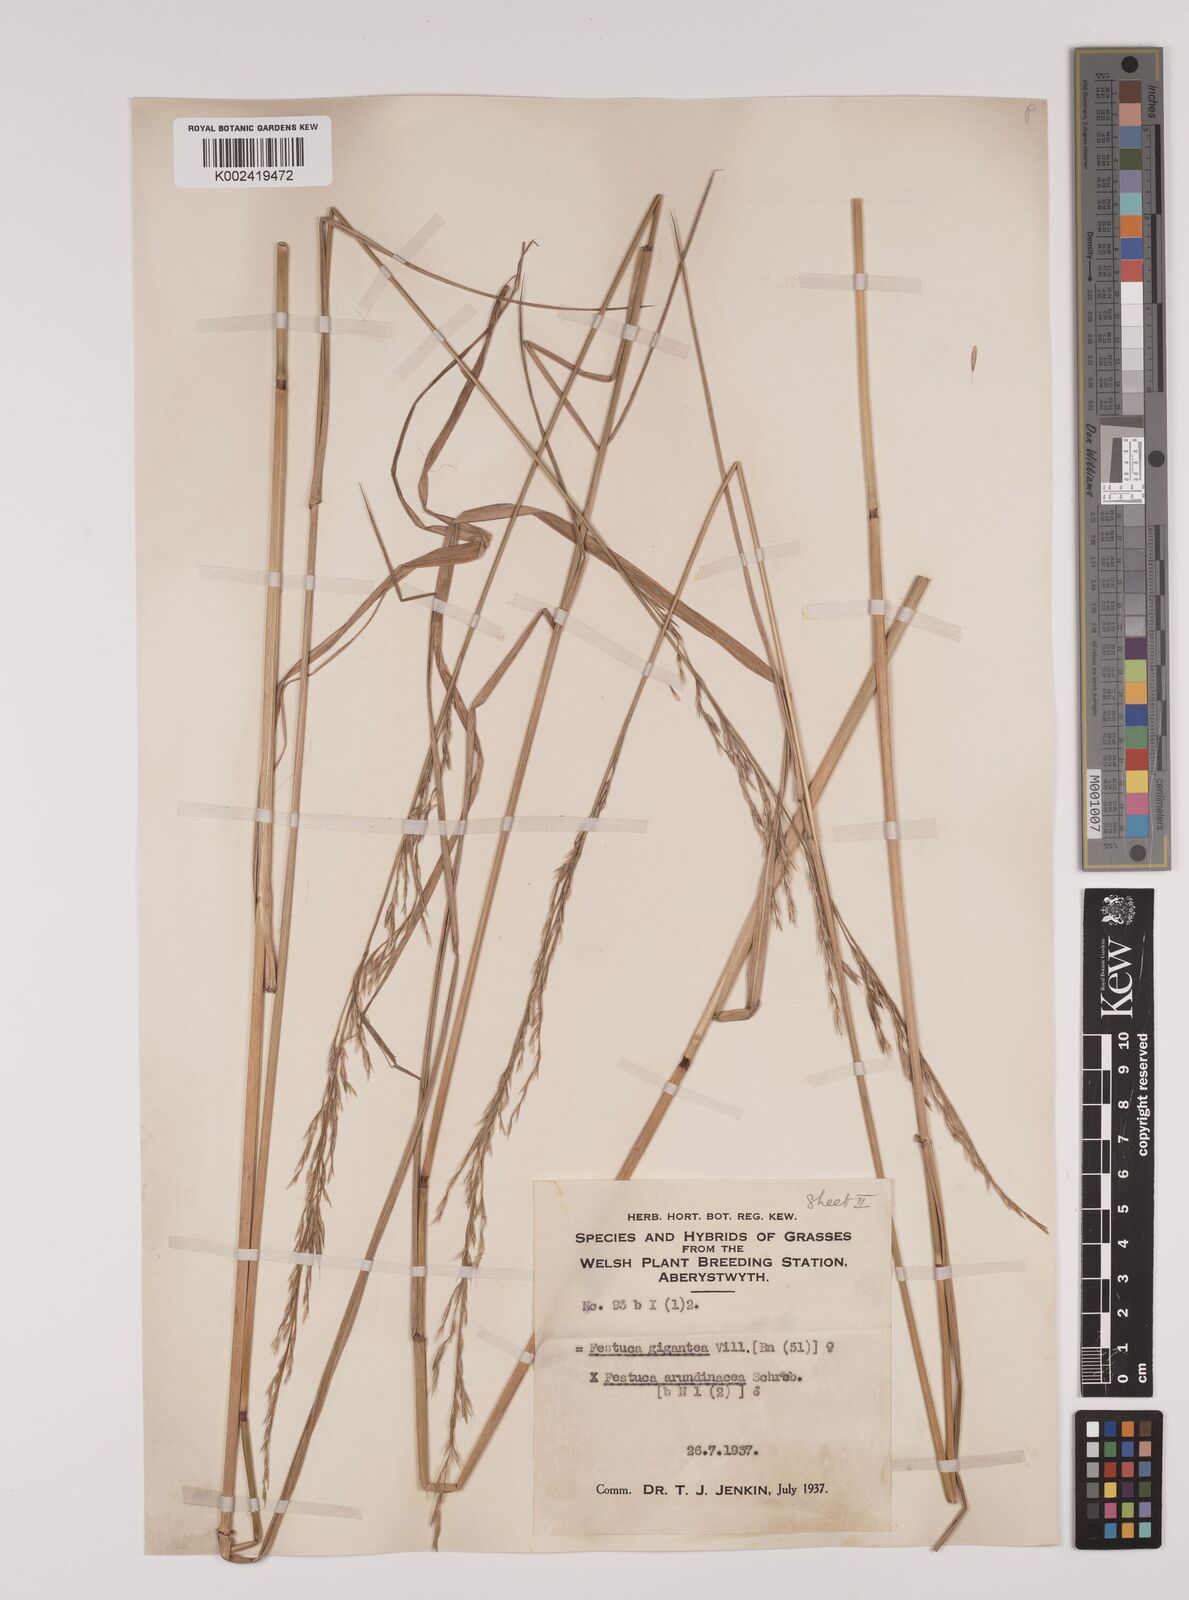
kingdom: Plantae
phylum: Tracheophyta
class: Liliopsida
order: Poales
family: Poaceae
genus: Lolium
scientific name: Lolium giganteum
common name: Giant fescue
